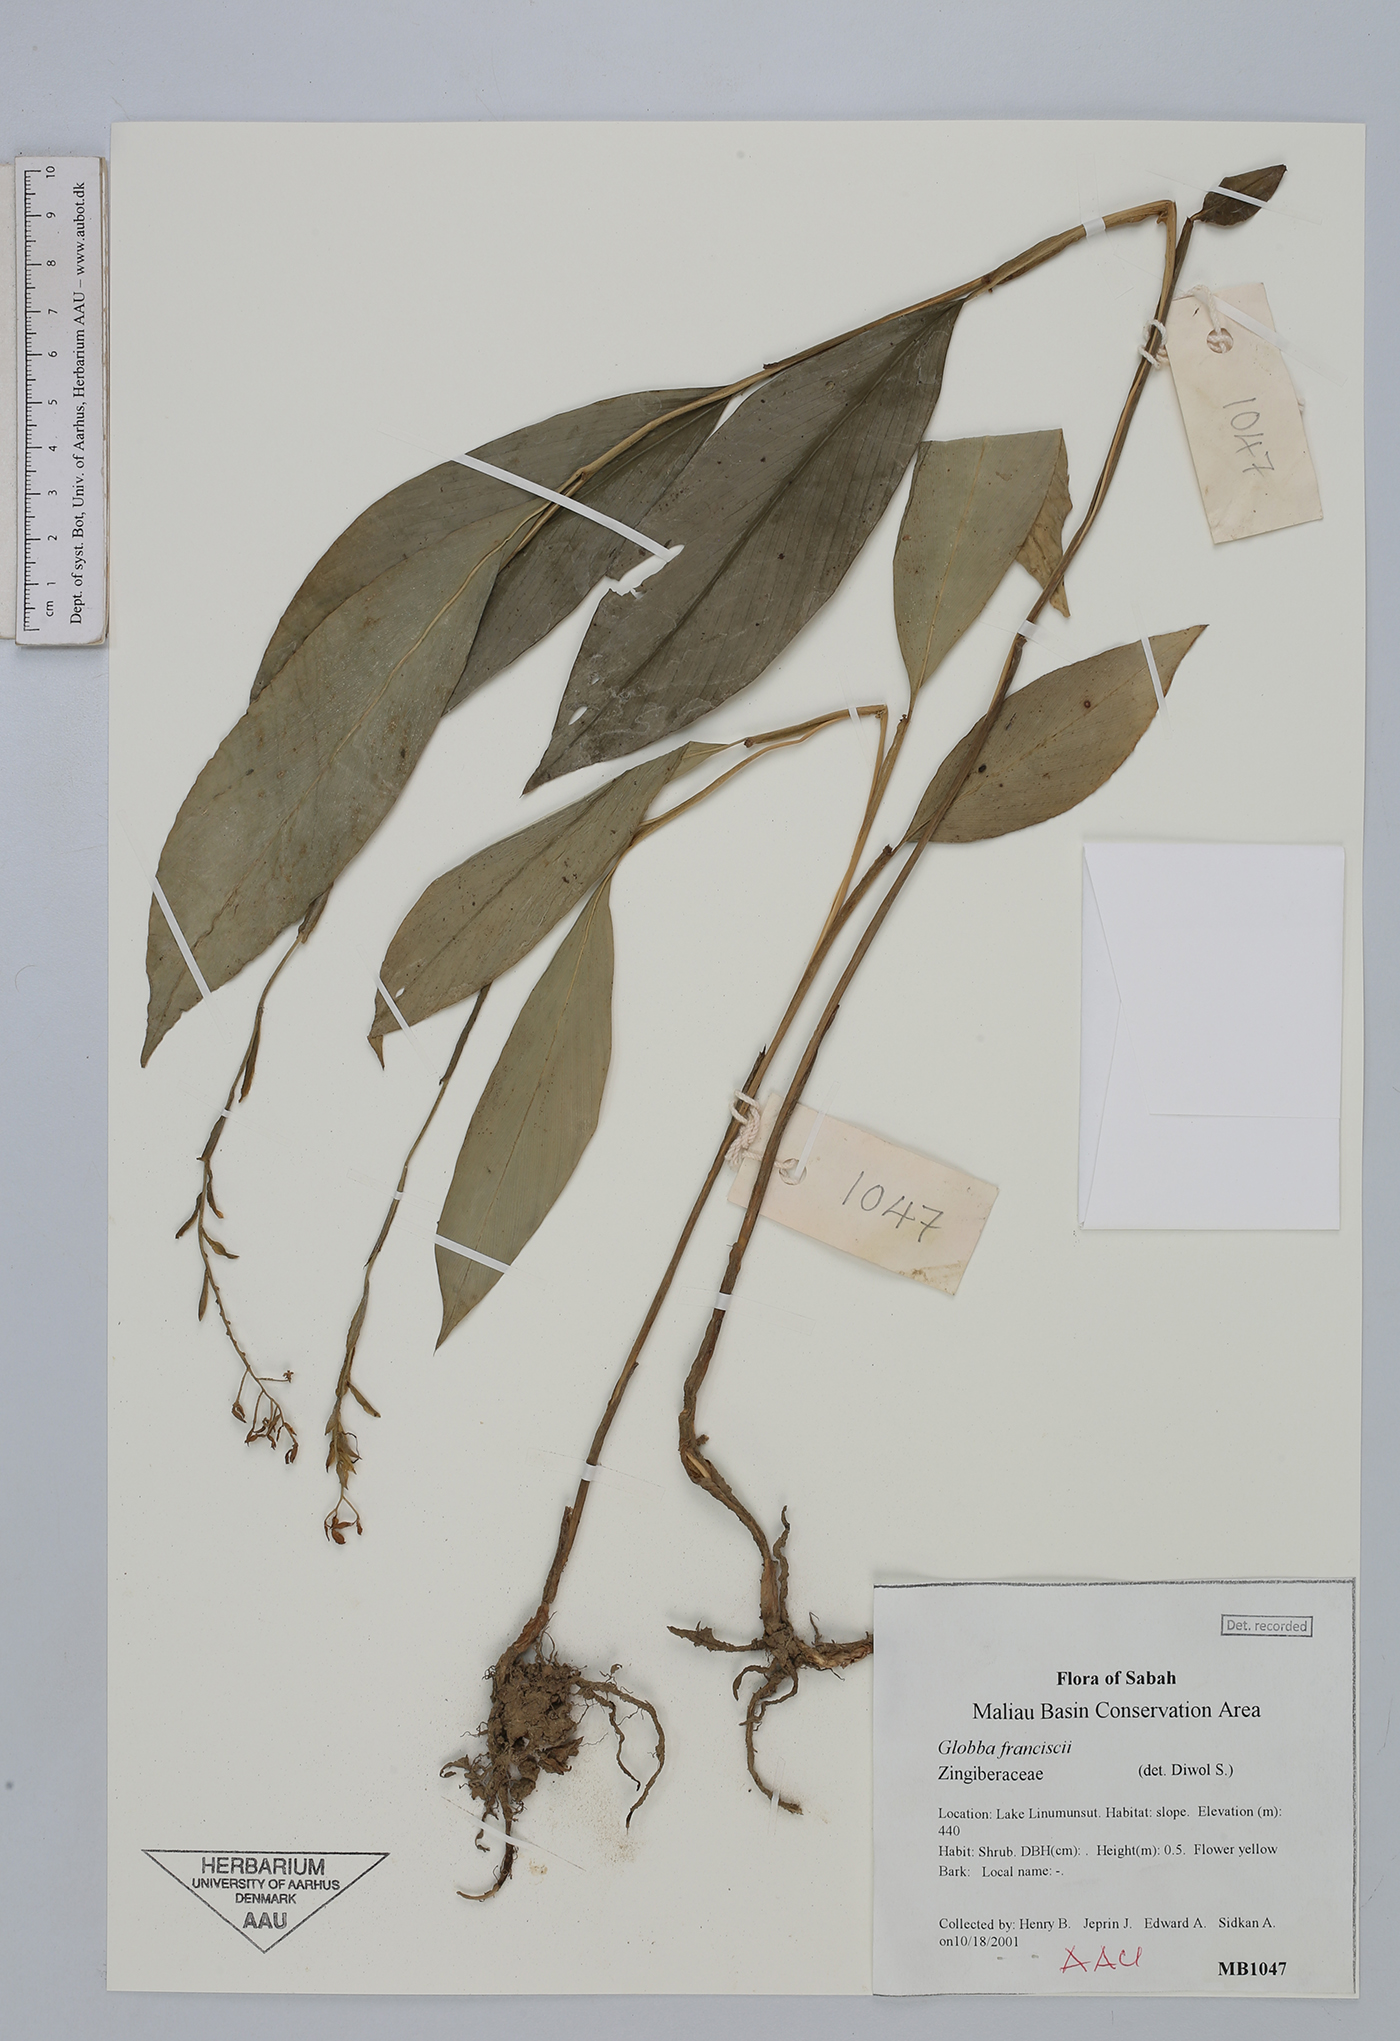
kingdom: Plantae
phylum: Tracheophyta
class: Liliopsida
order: Zingiberales
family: Zingiberaceae
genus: Globba
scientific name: Globba francisci
